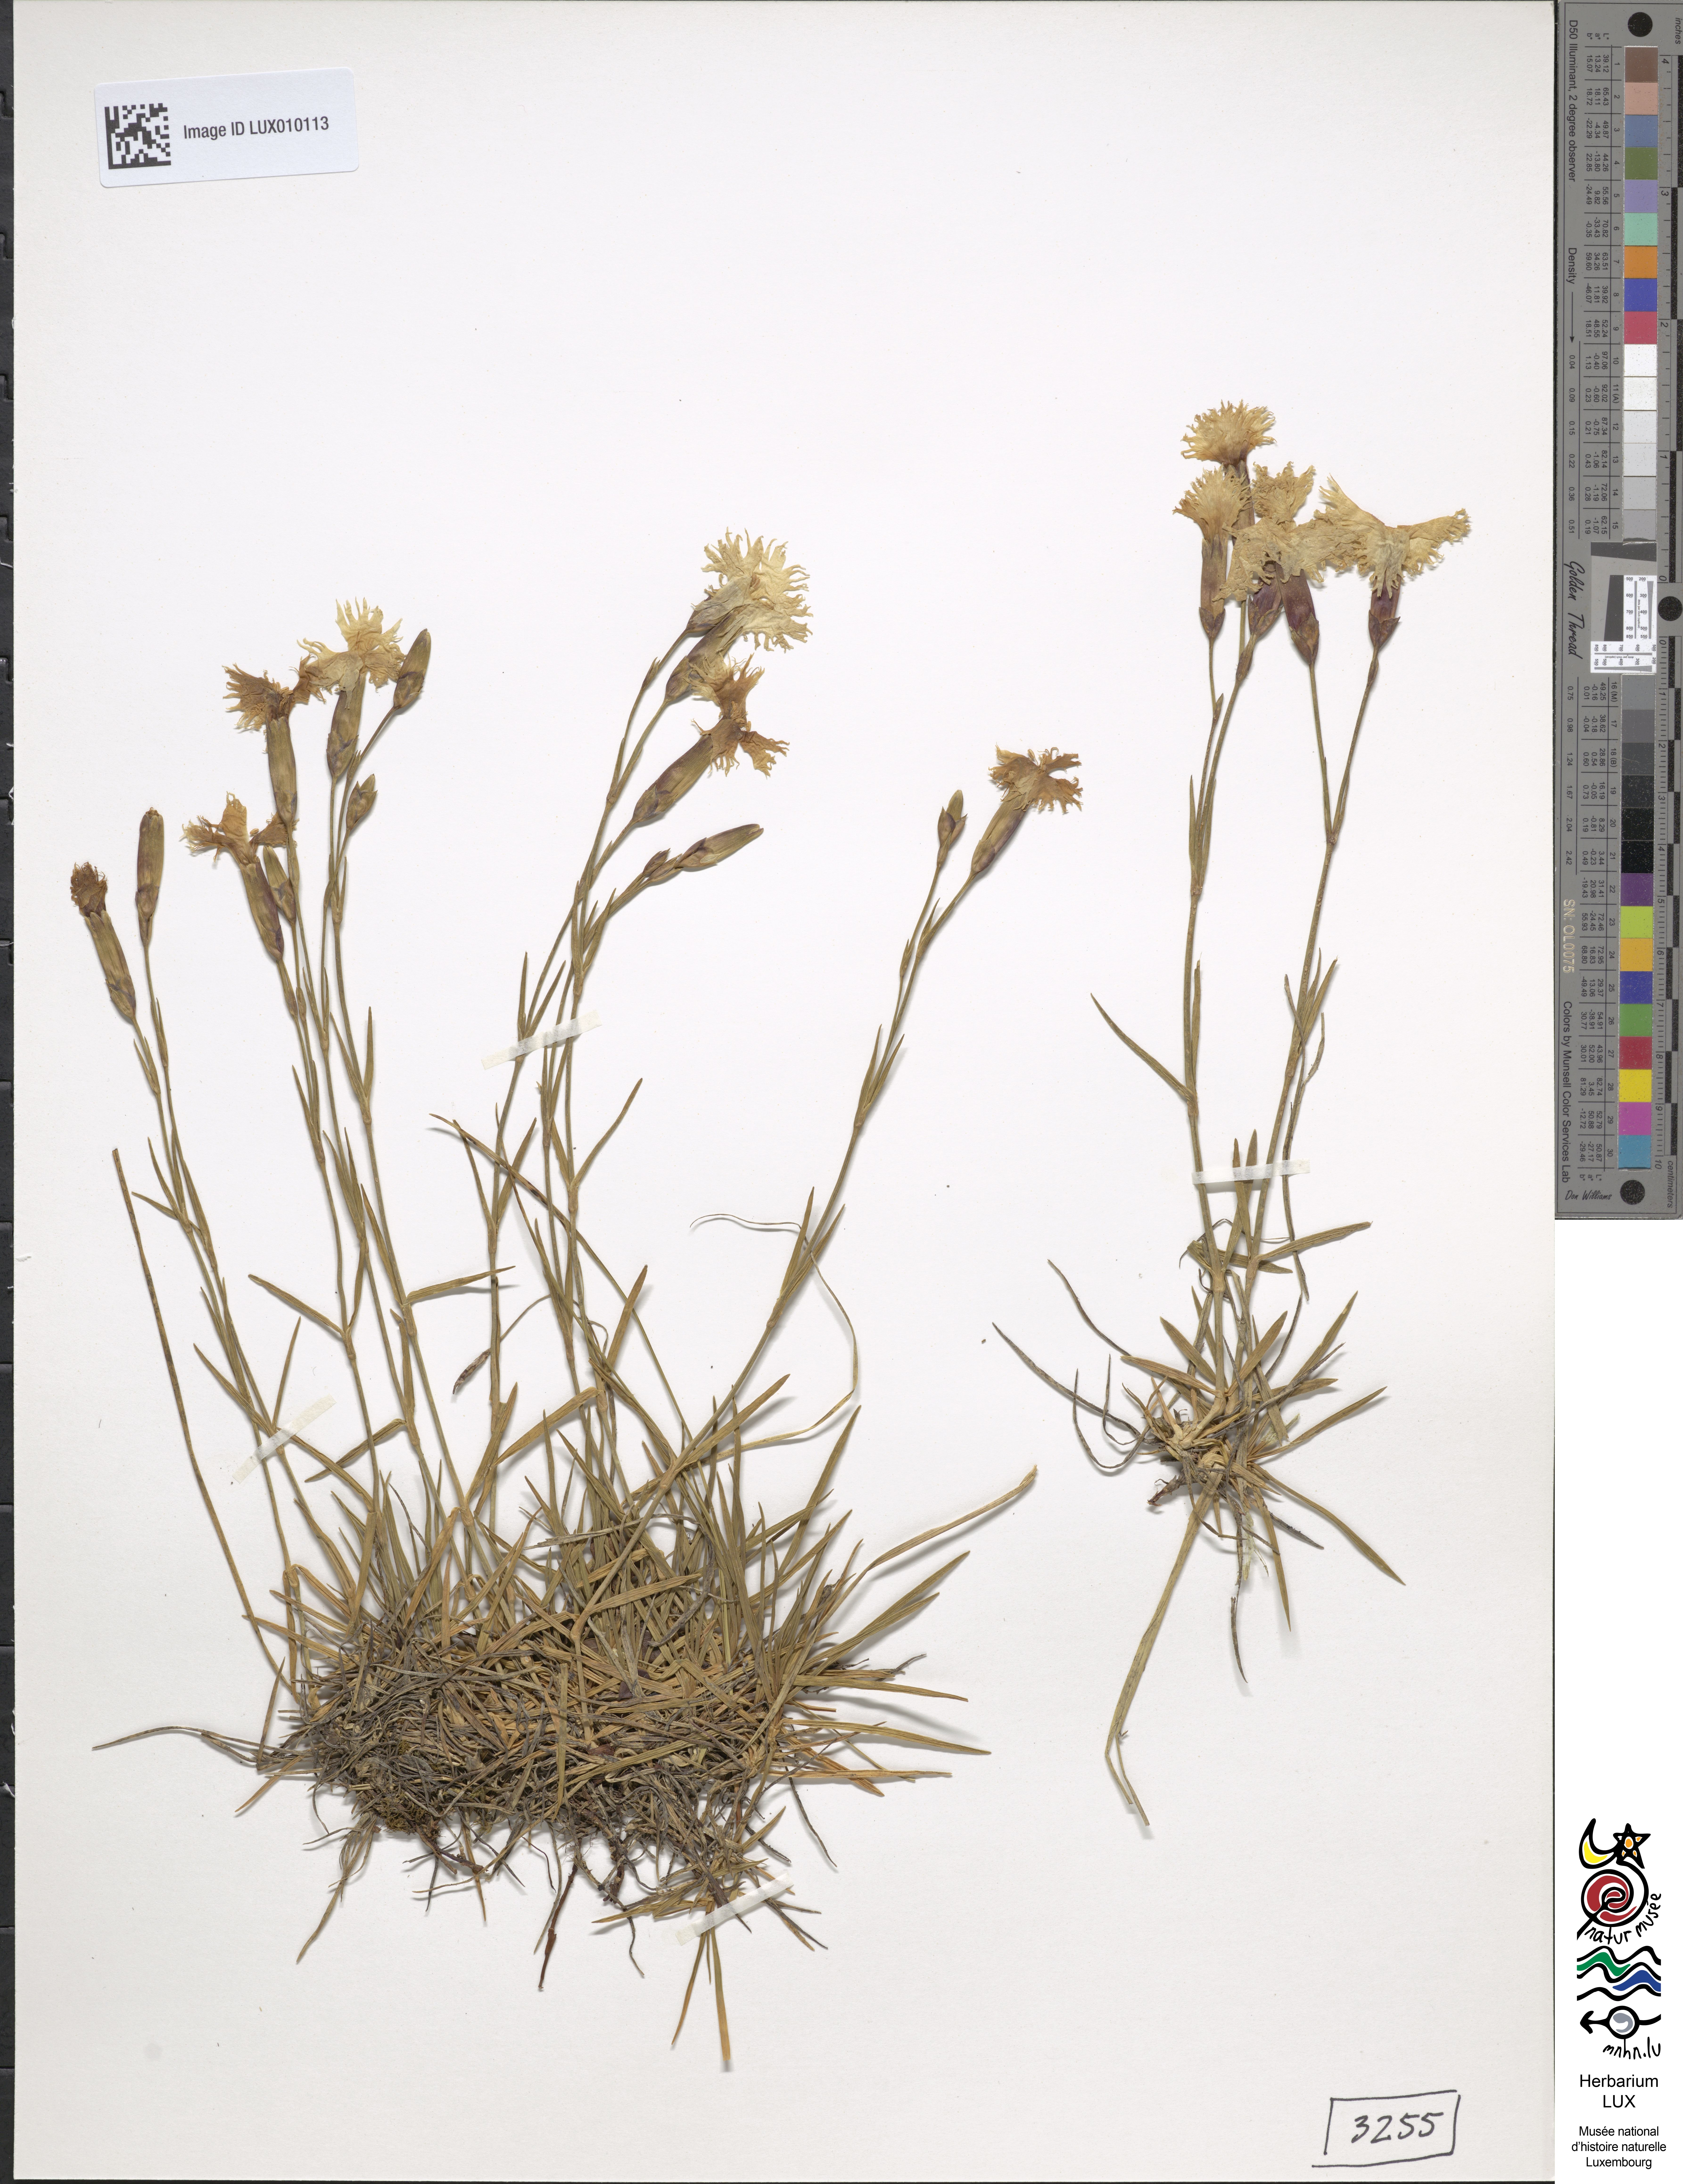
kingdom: Plantae
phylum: Tracheophyta
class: Magnoliopsida
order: Caryophyllales
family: Caryophyllaceae
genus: Dianthus
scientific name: Dianthus plumarius
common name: Pink
